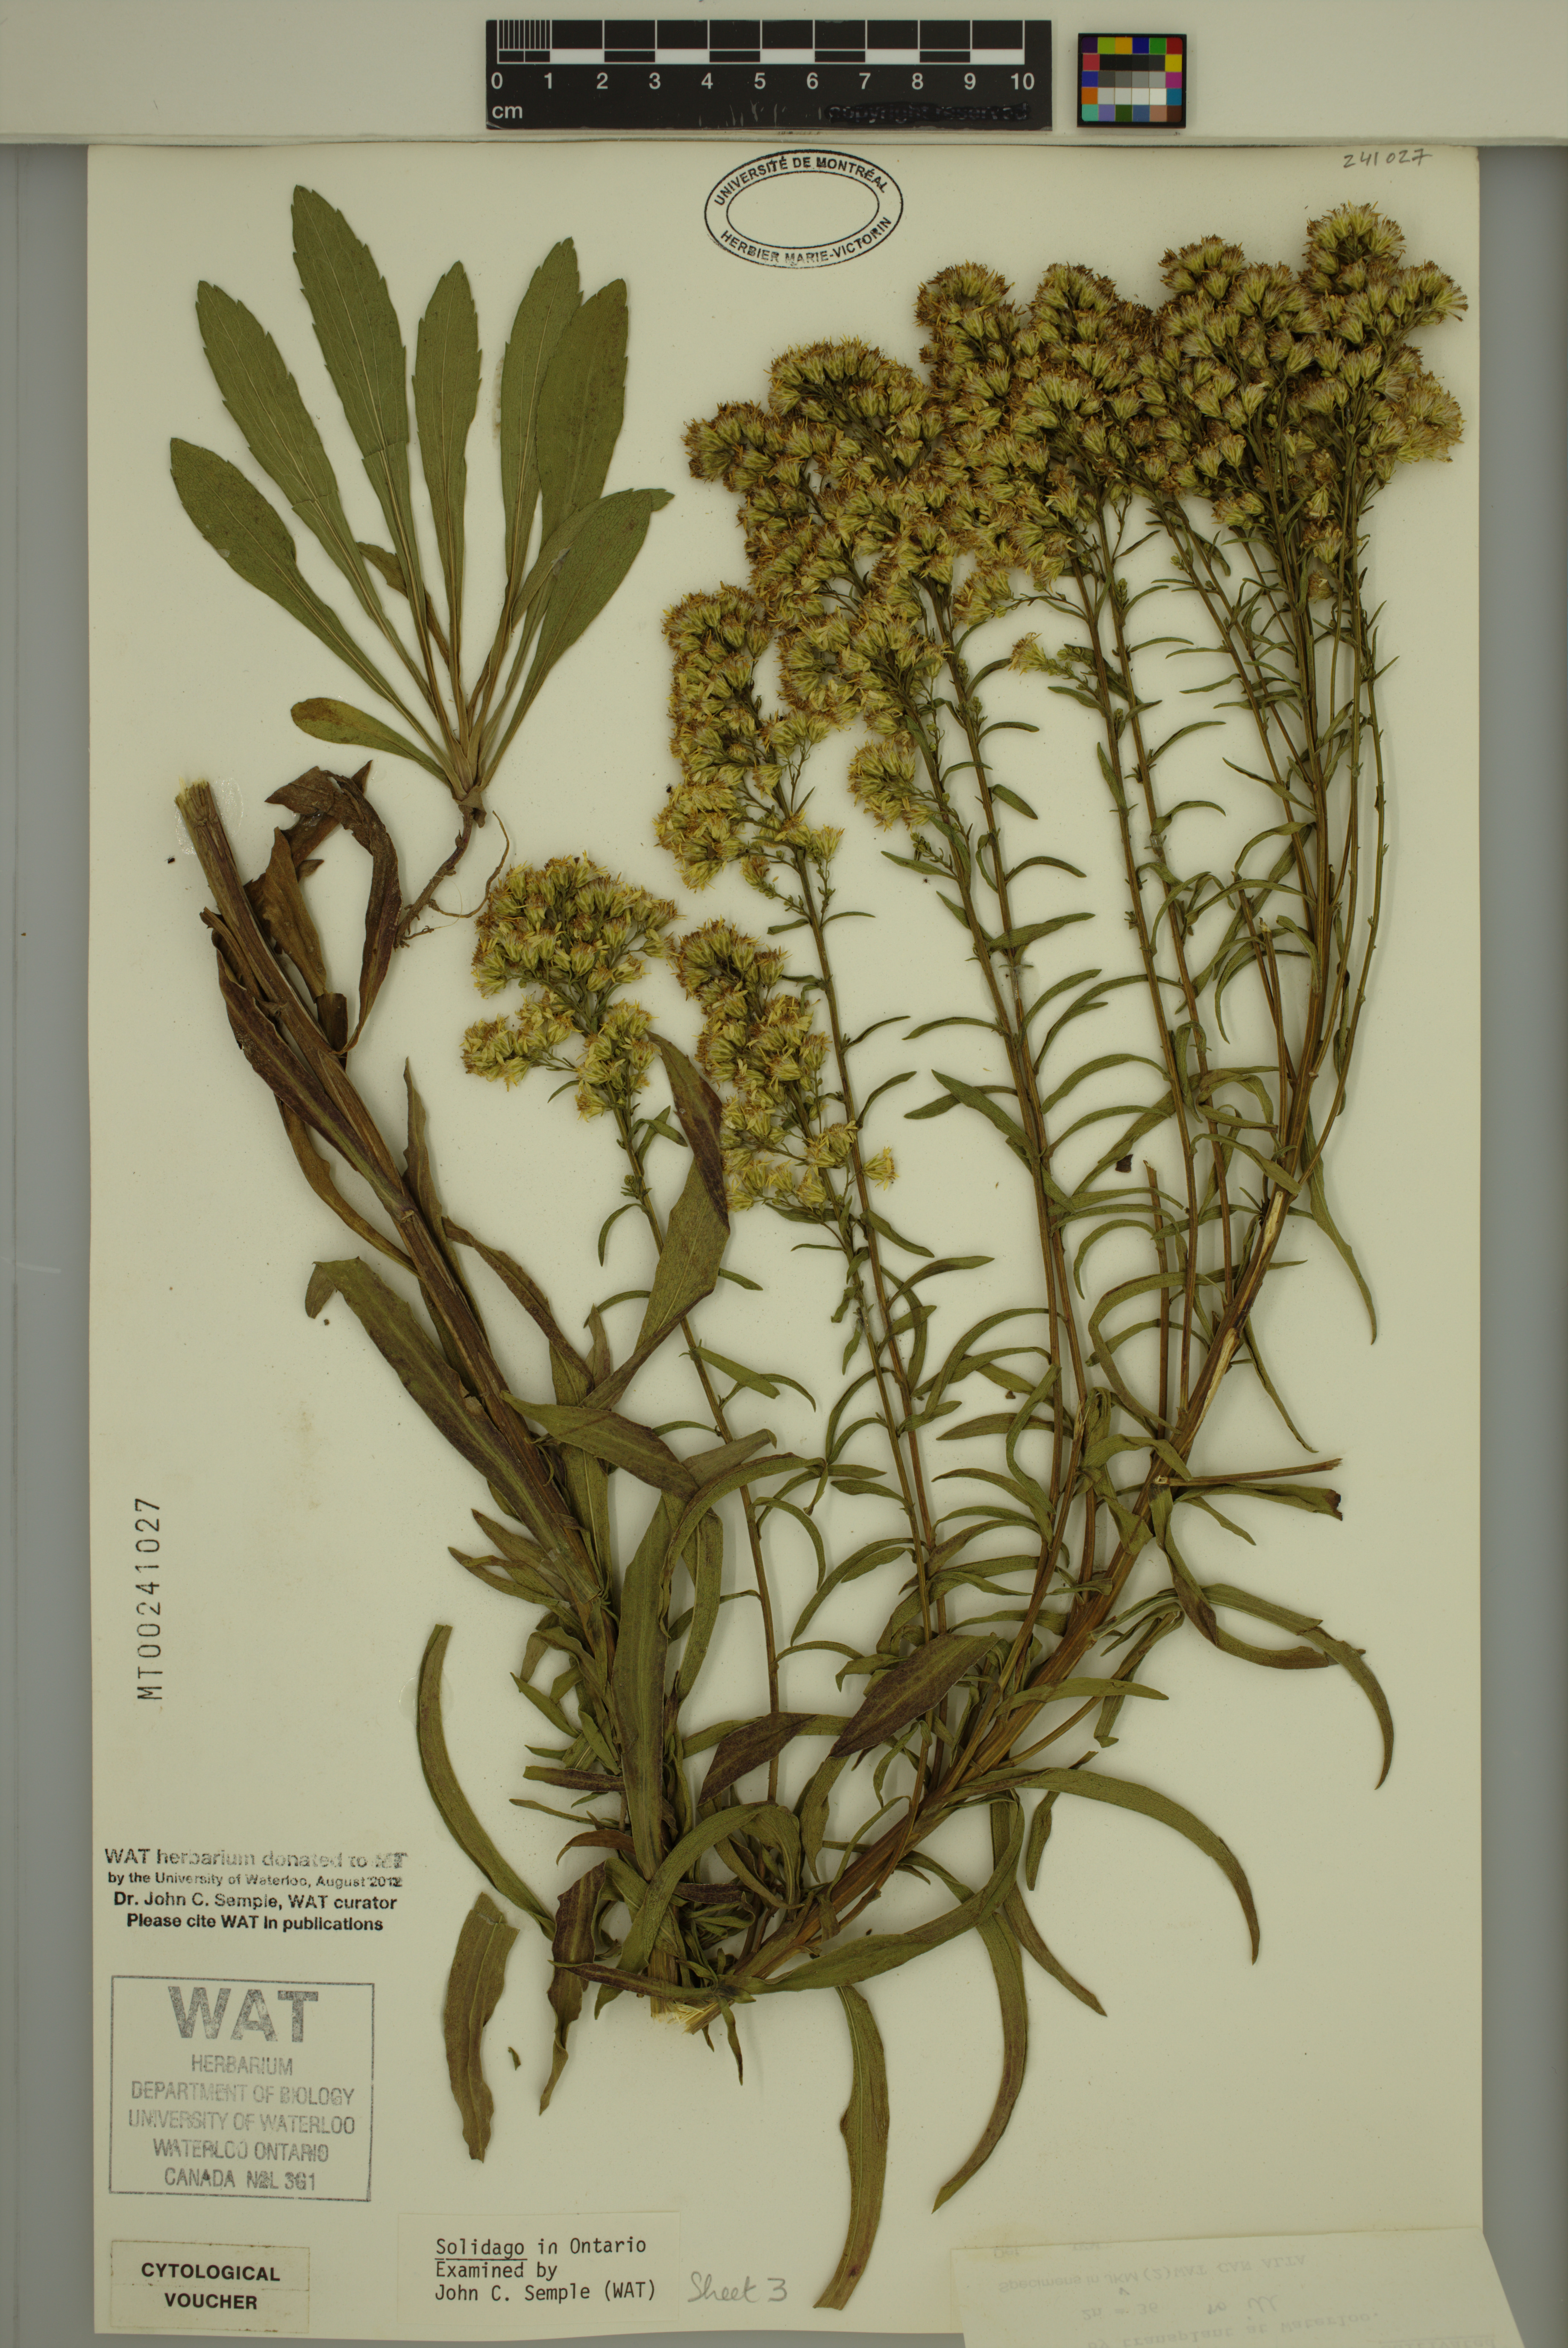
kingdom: Plantae
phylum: Tracheophyta
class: Magnoliopsida
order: Asterales
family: Asteraceae
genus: Solidago
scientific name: Solidago missouriensis
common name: Prairie goldenrod
